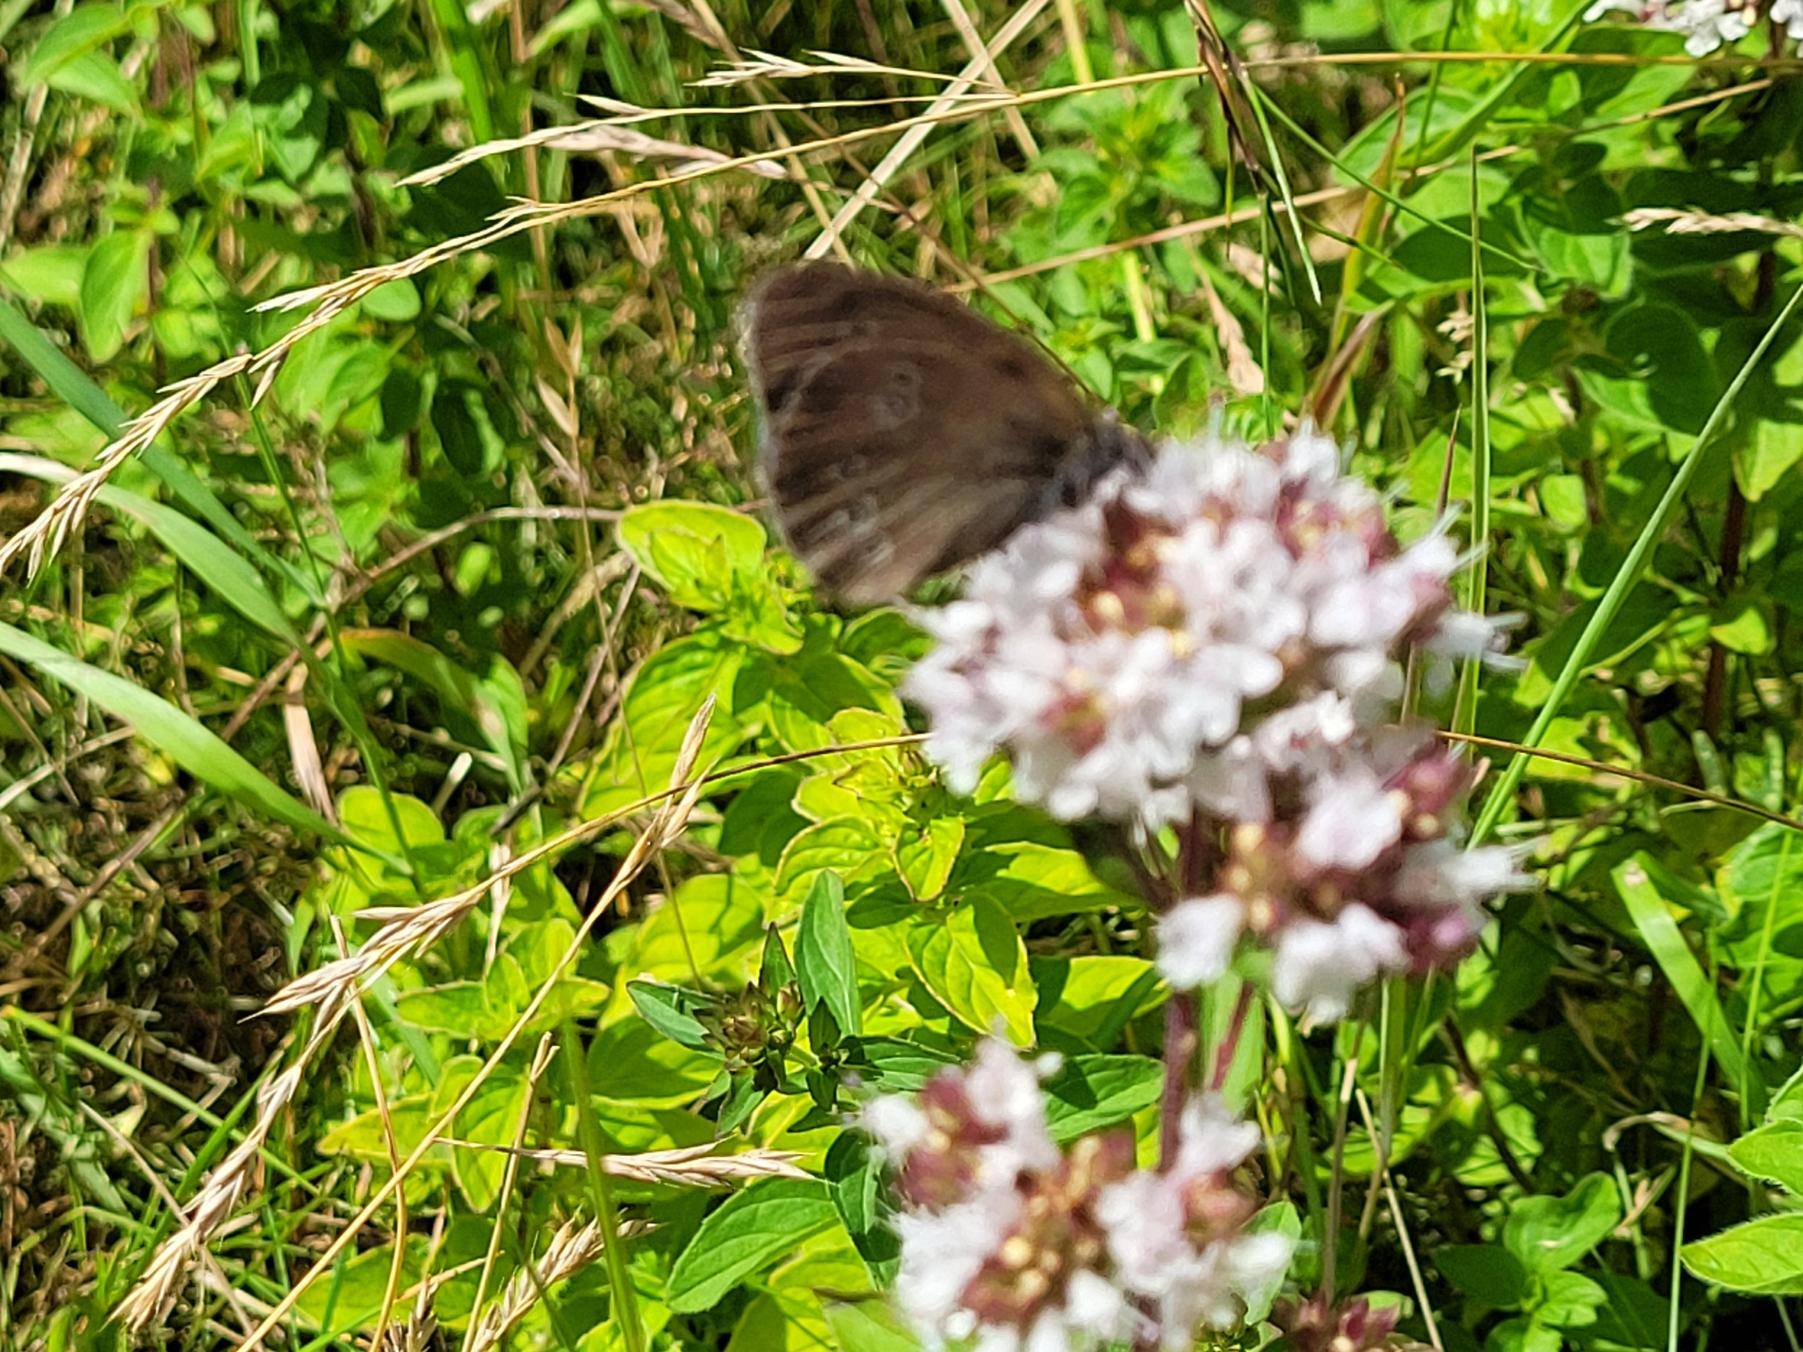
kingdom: Animalia
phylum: Arthropoda
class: Insecta
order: Lepidoptera
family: Nymphalidae
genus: Aphantopus
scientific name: Aphantopus hyperantus
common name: Engrandøje
